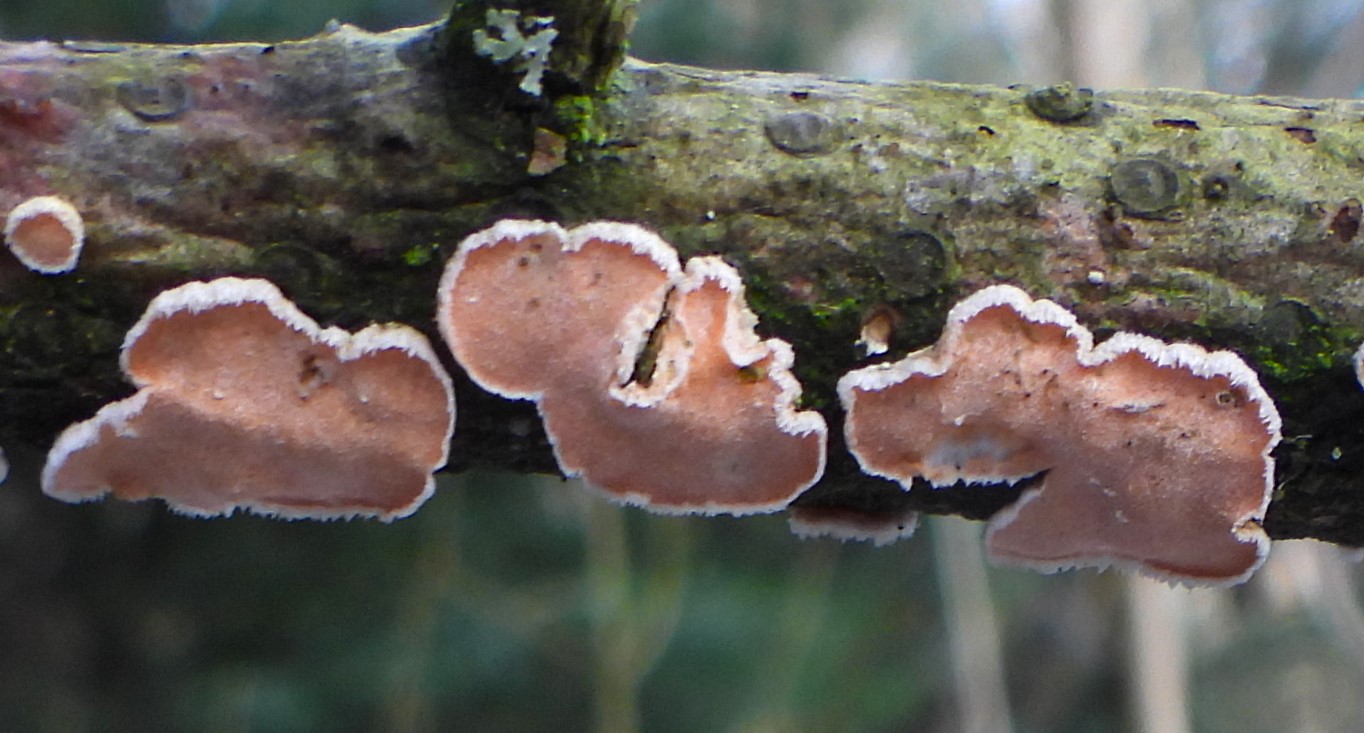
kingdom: Fungi
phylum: Basidiomycota
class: Agaricomycetes
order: Russulales
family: Stereaceae
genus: Aleurodiscus
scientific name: Aleurodiscus amorphus
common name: orange skiveskorpe
